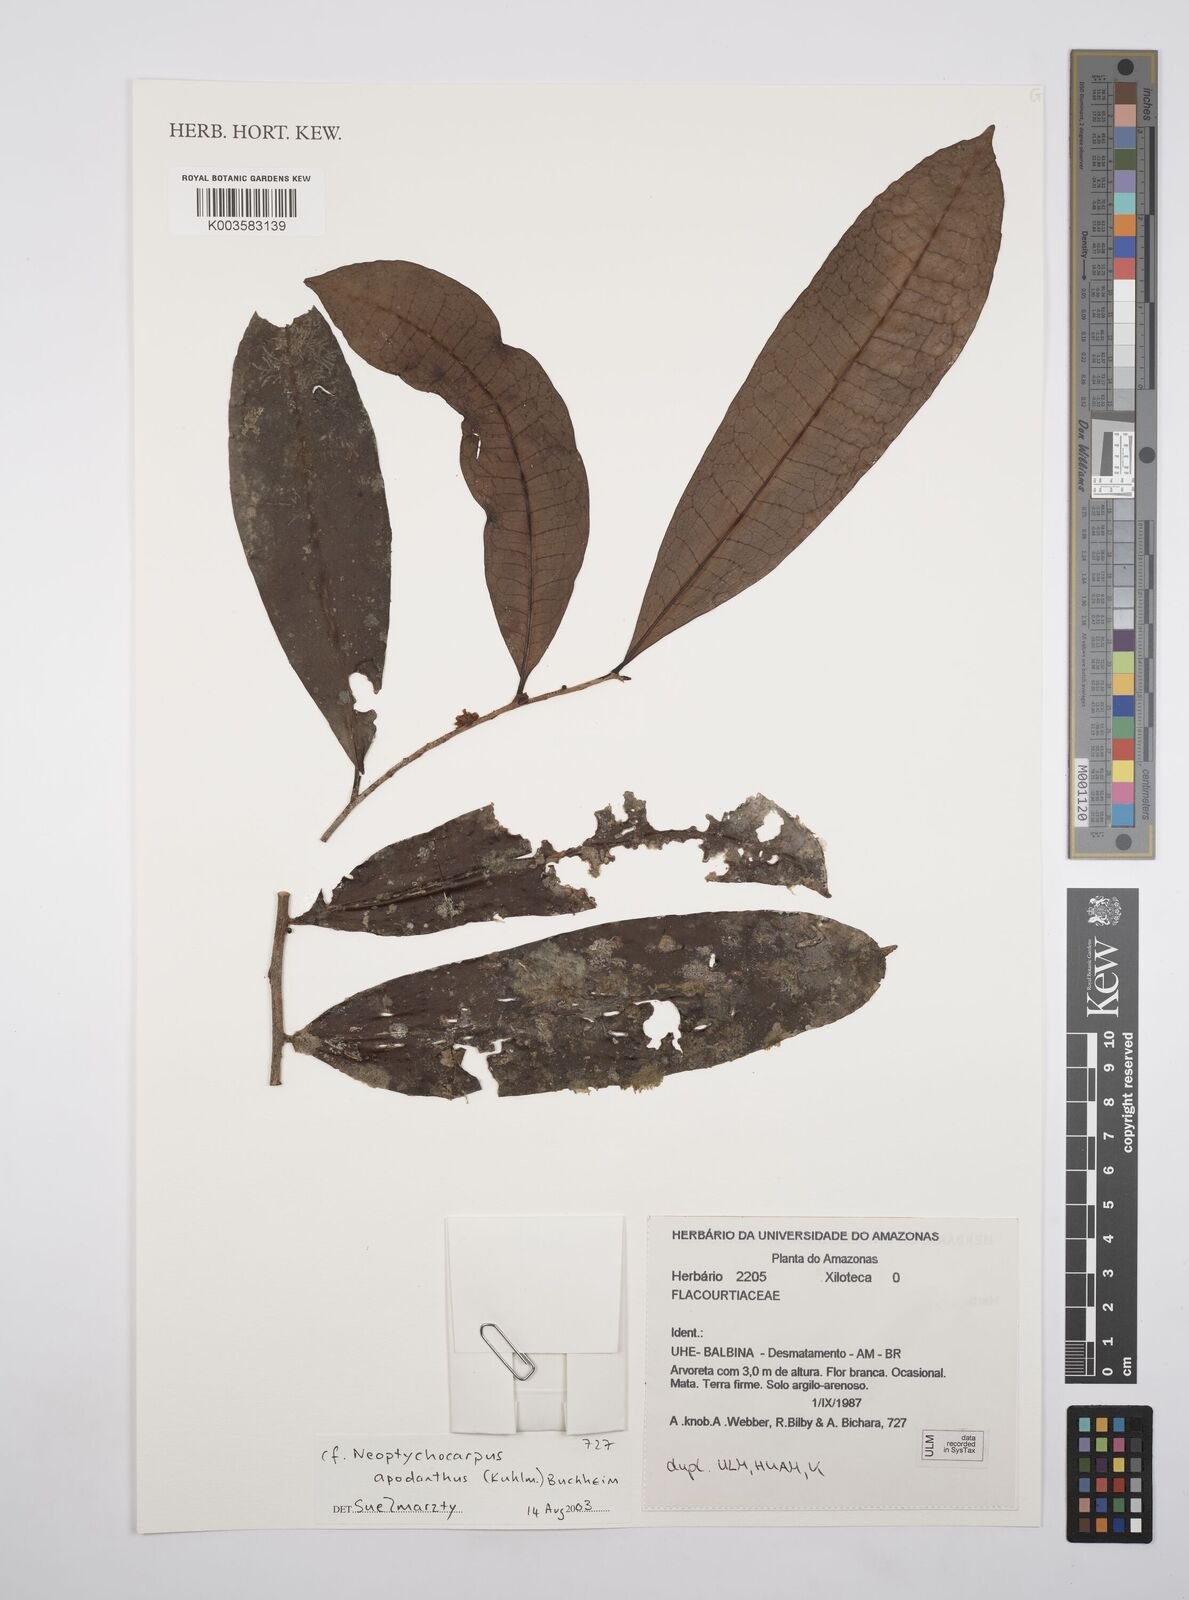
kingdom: Plantae
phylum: Tracheophyta
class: Magnoliopsida
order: Malpighiales
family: Salicaceae
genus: Casearia
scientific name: Casearia apodantha
